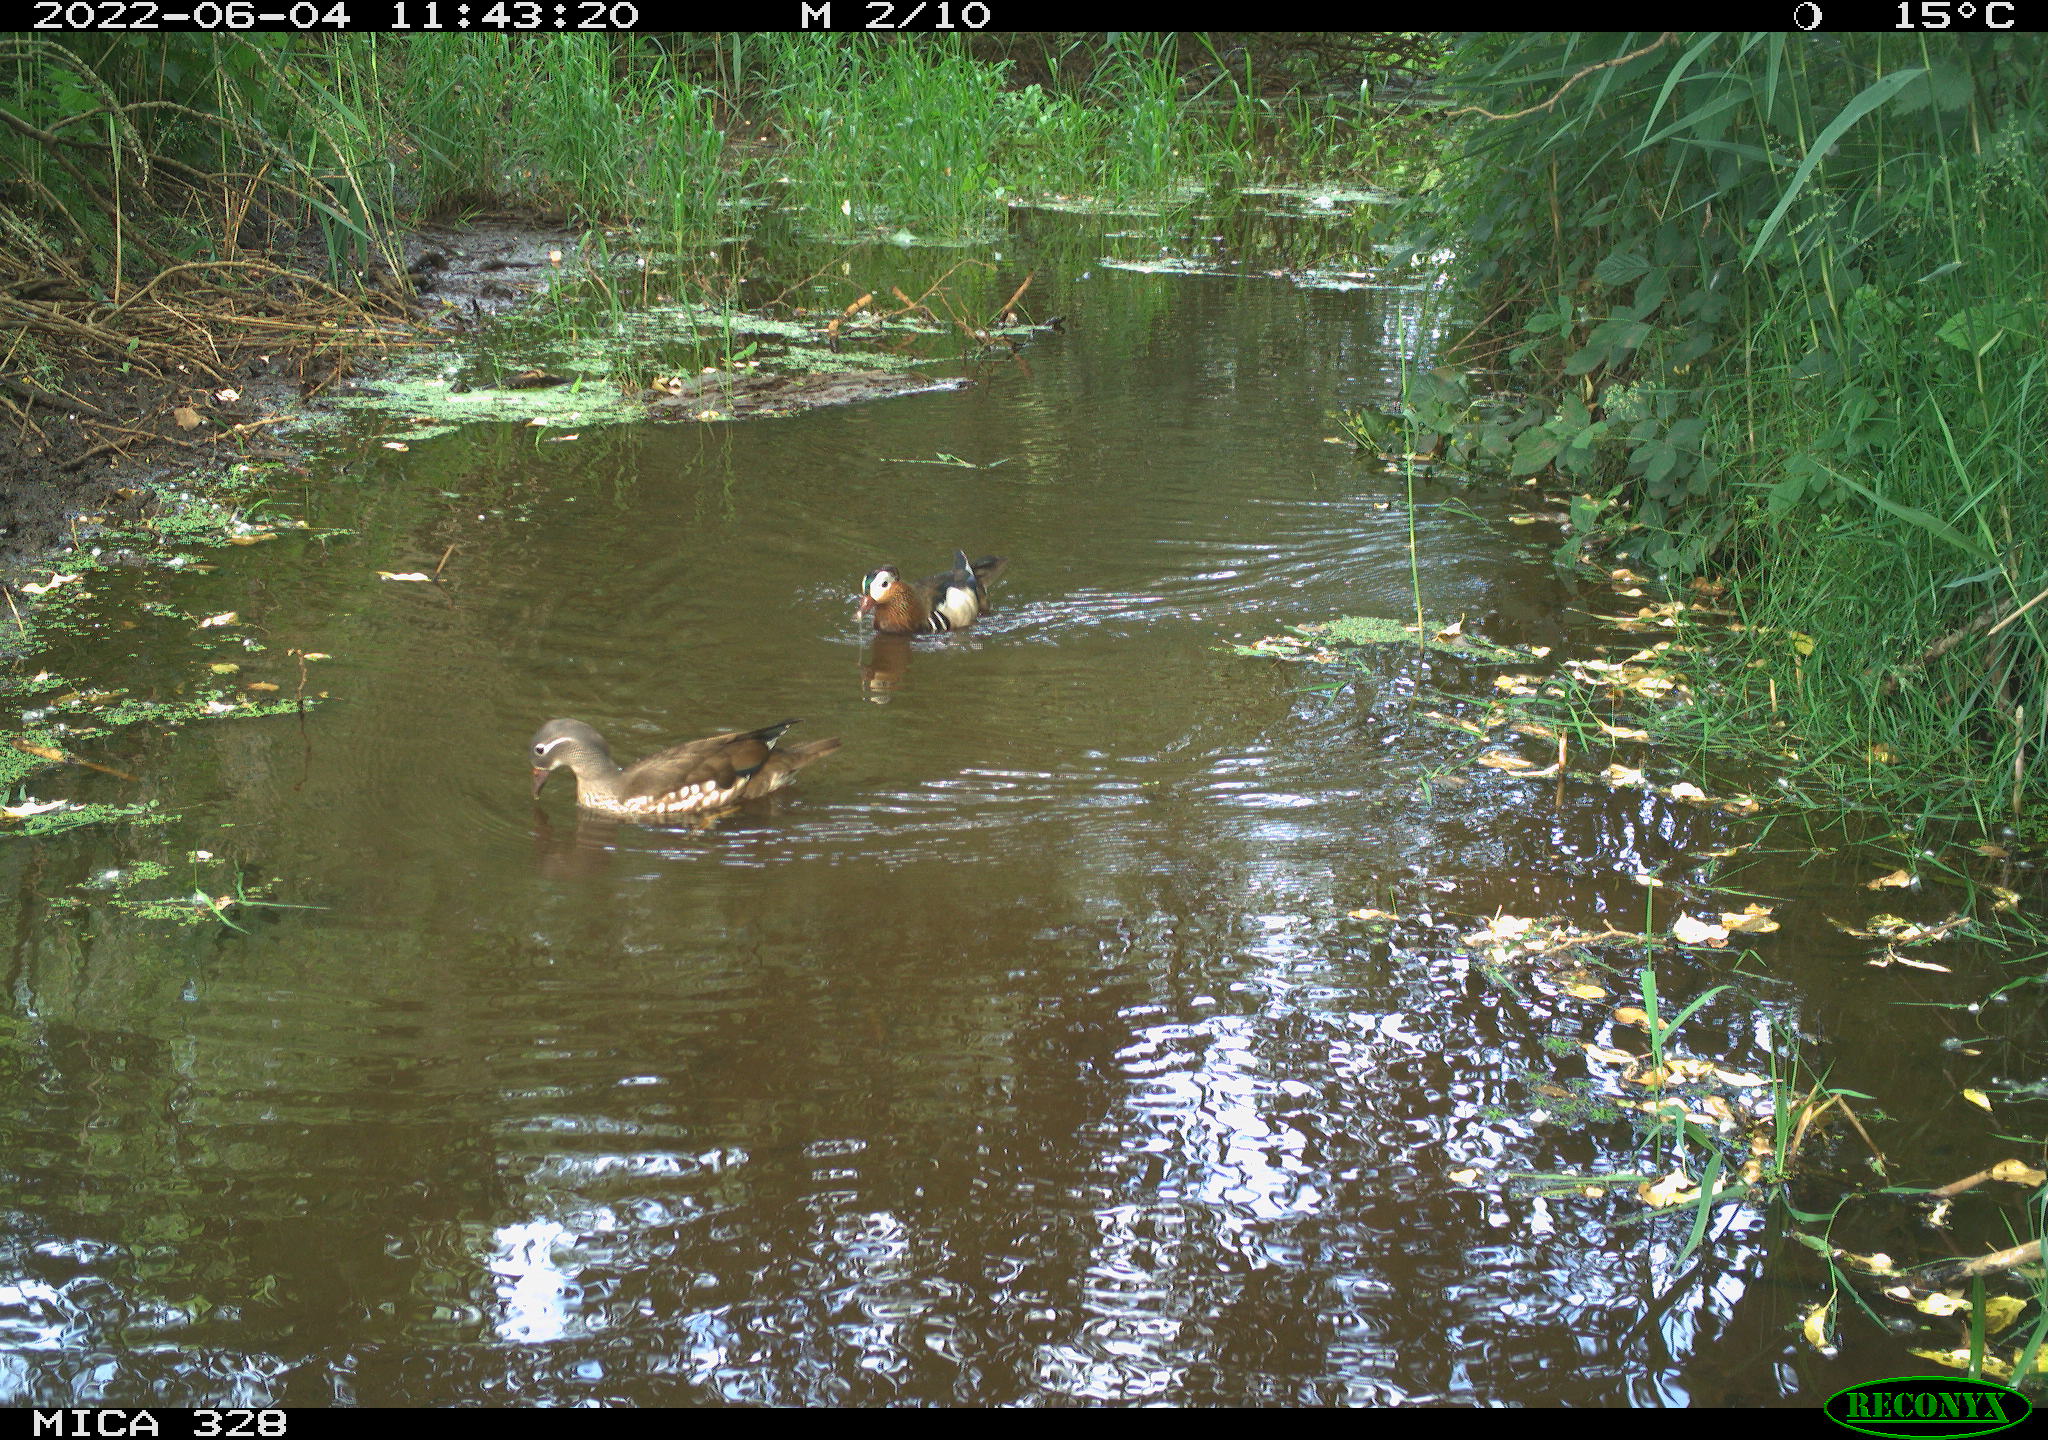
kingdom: Animalia
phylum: Chordata
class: Aves
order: Anseriformes
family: Anatidae
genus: Anas
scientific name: Anas
